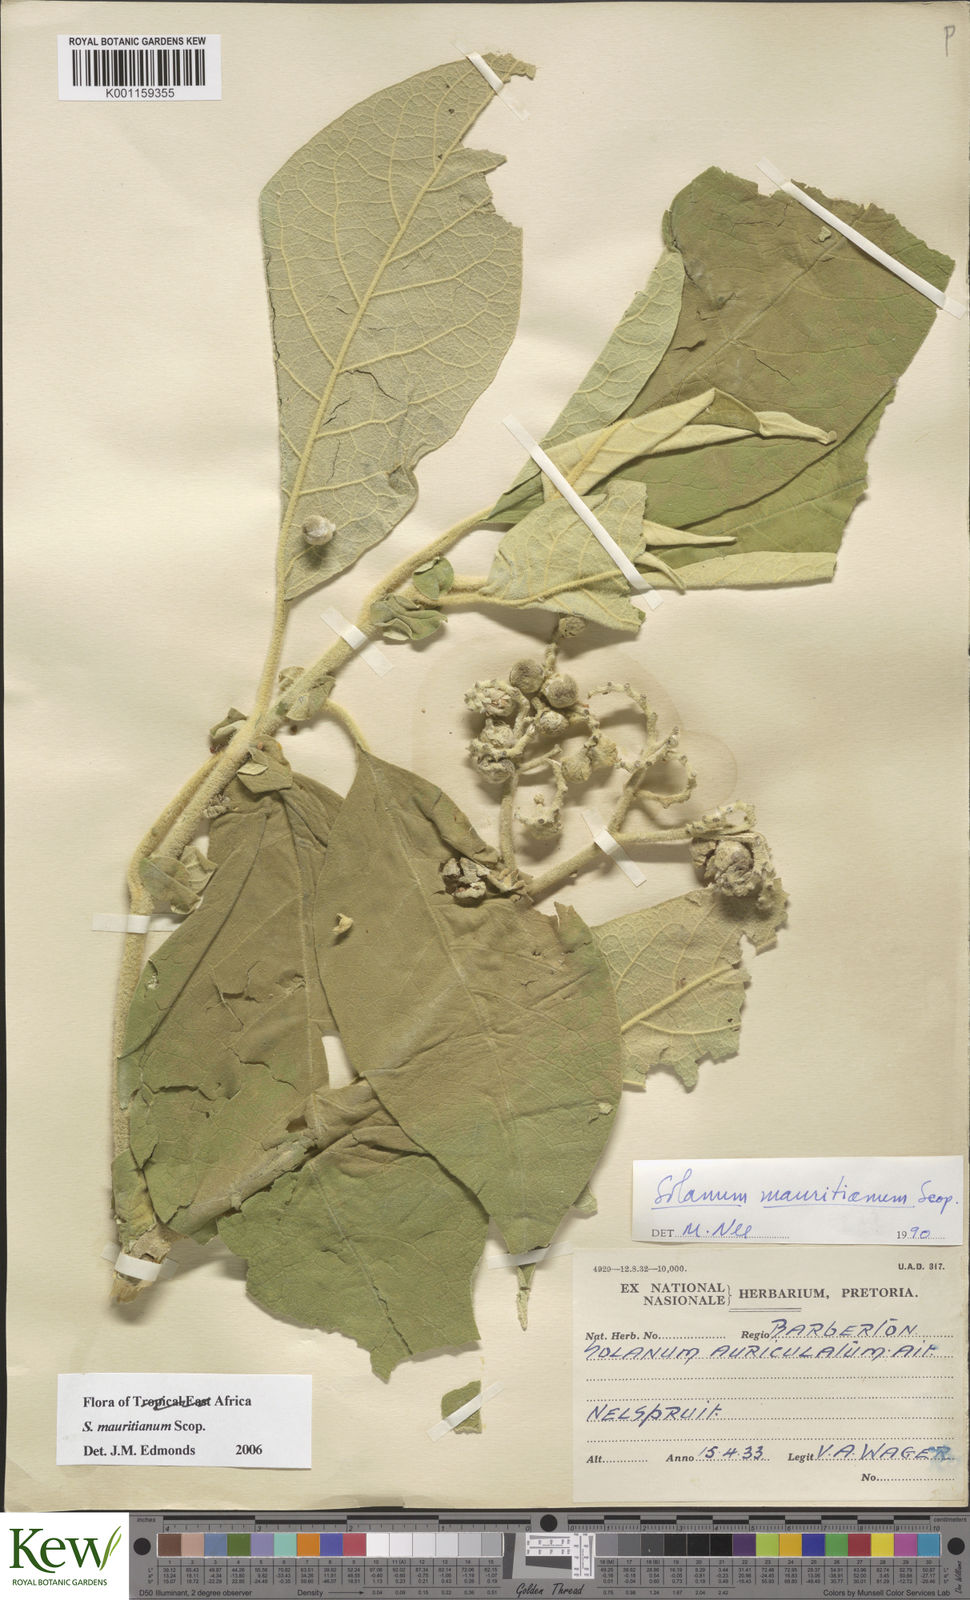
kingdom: Plantae
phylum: Tracheophyta
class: Magnoliopsida
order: Solanales
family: Solanaceae
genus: Solanum
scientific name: Solanum mauritianum
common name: Earleaf nightshade
